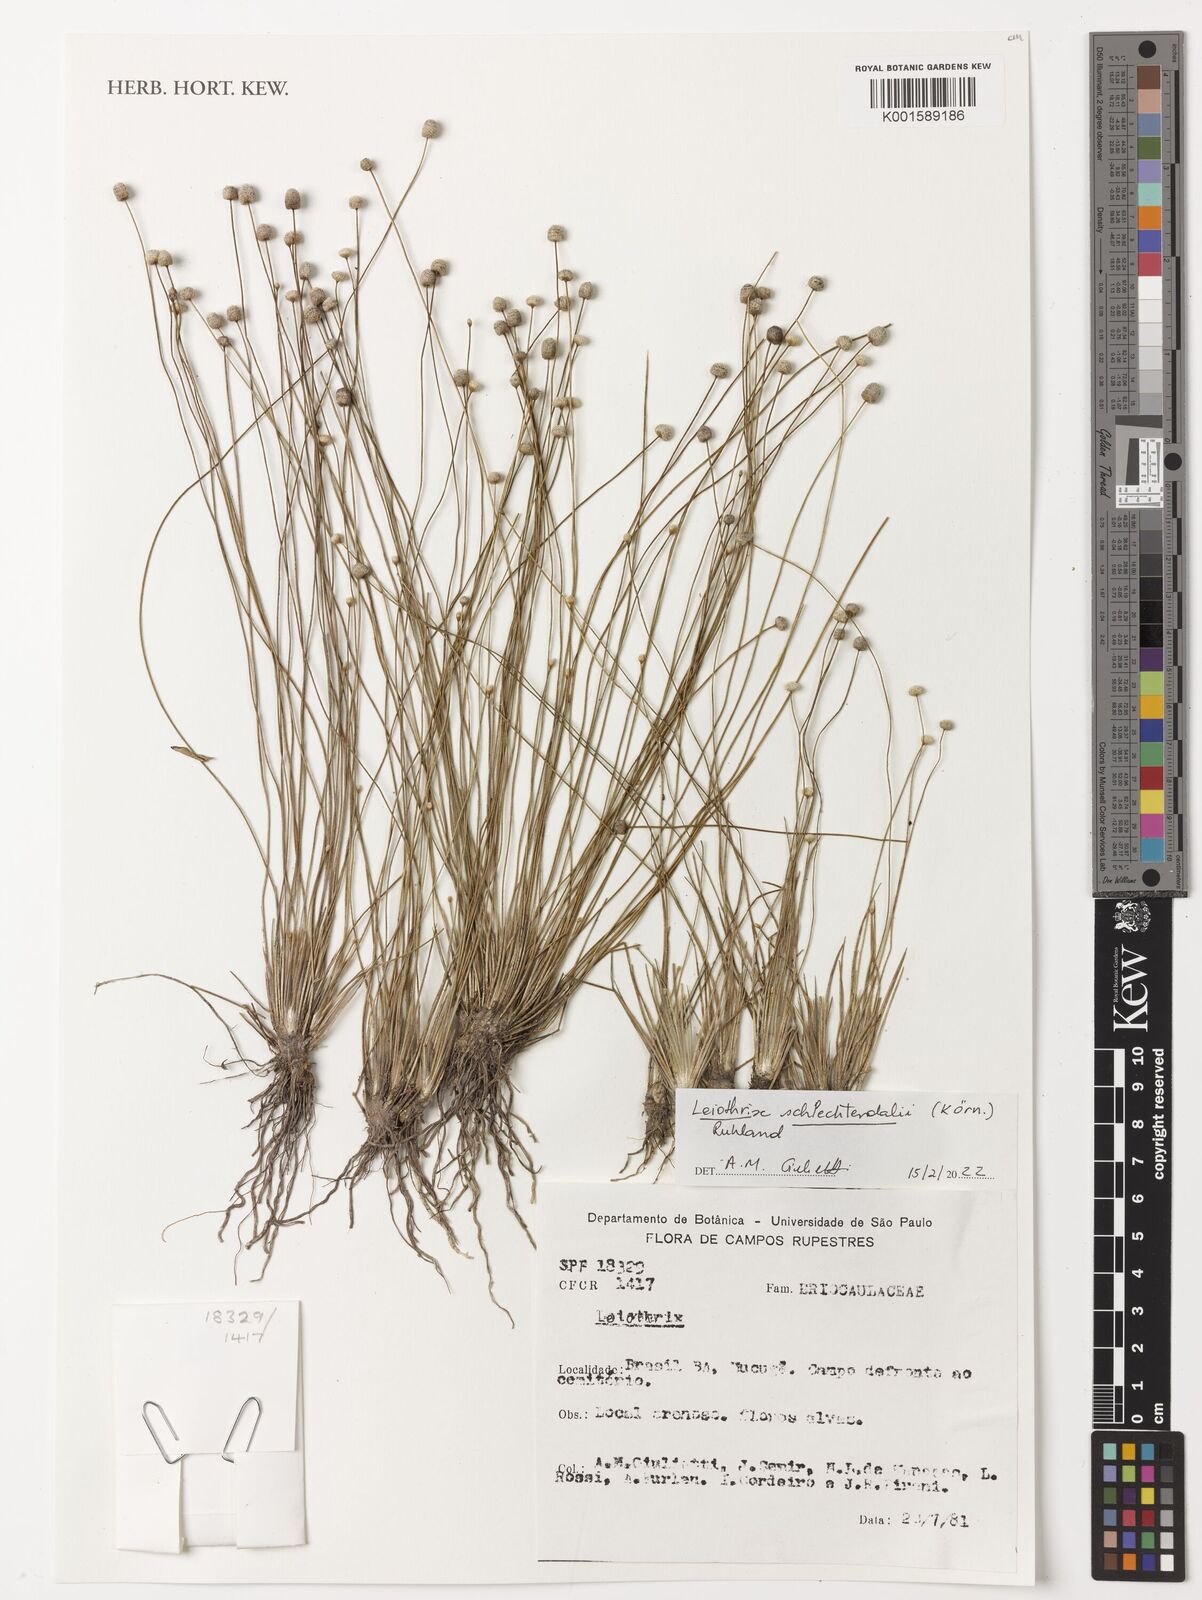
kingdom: Plantae
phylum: Tracheophyta
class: Liliopsida
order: Poales
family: Eriocaulaceae
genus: Leiothrix
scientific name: Leiothrix schlechtendalii
